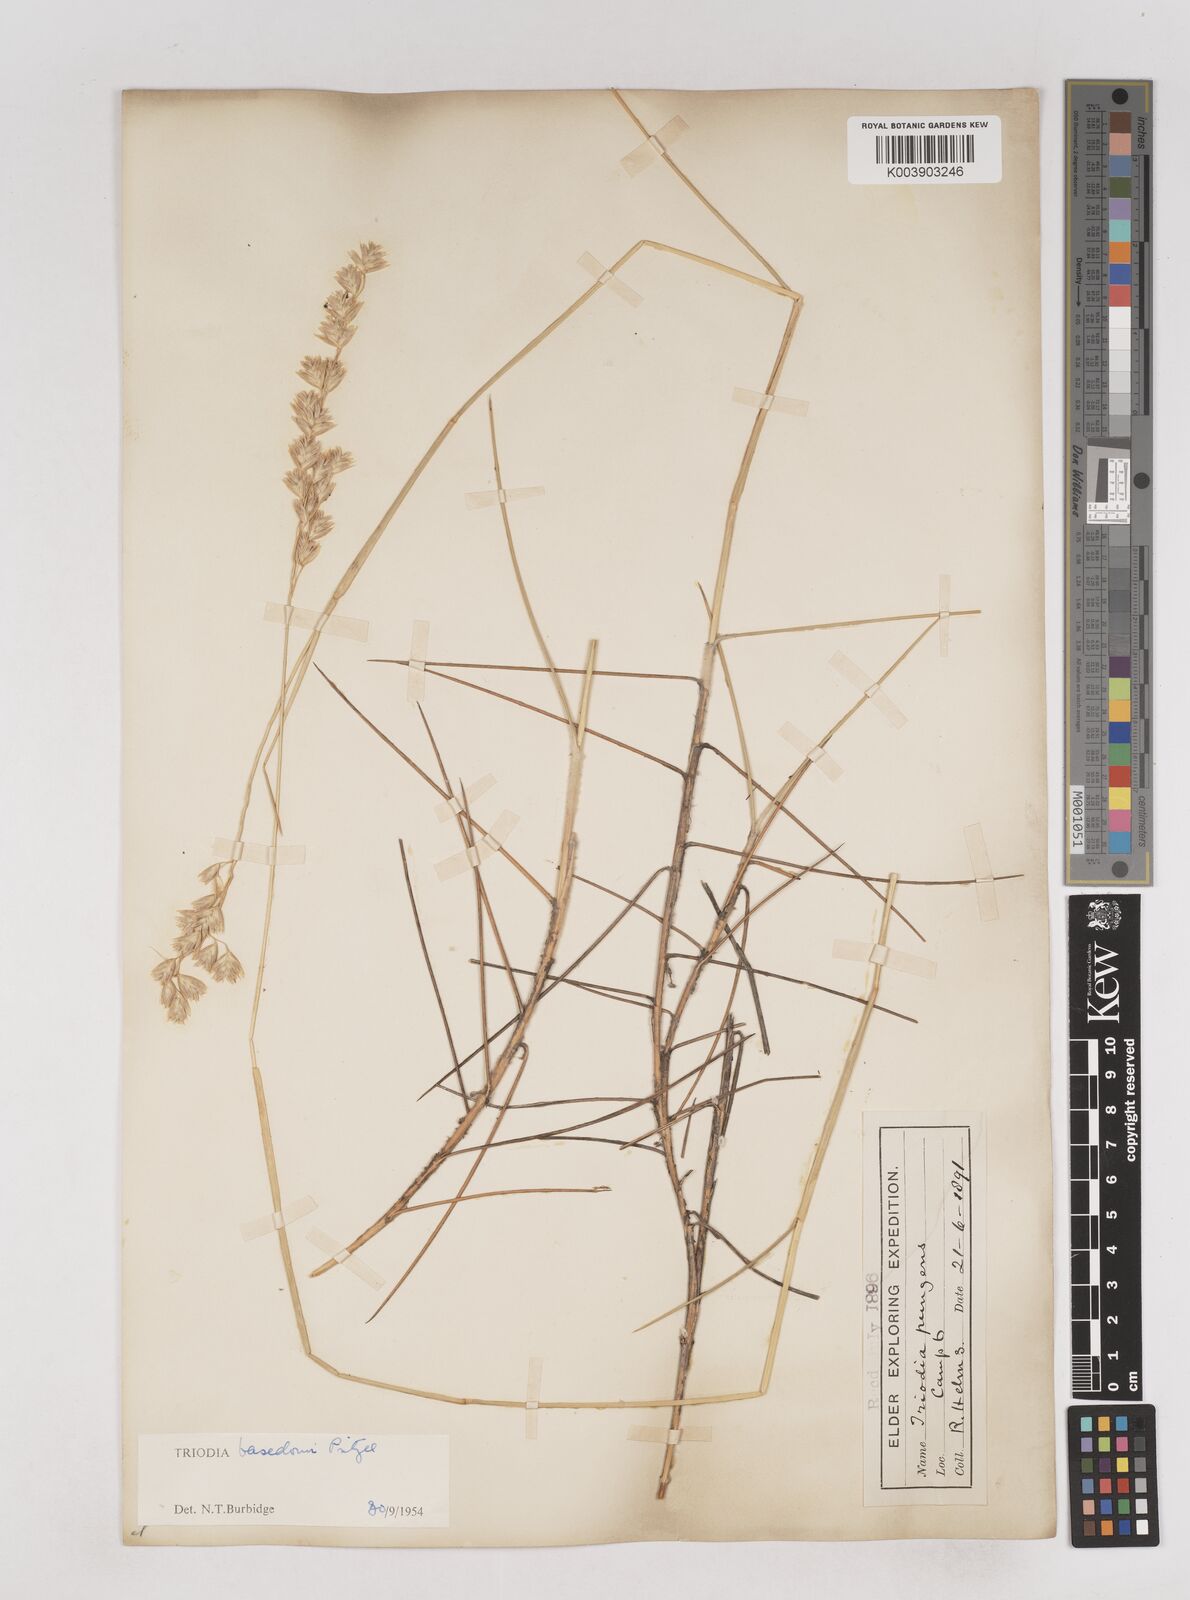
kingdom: Plantae
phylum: Tracheophyta
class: Liliopsida
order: Poales
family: Poaceae
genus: Triodia
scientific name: Triodia basedowii
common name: Hard spinifex
